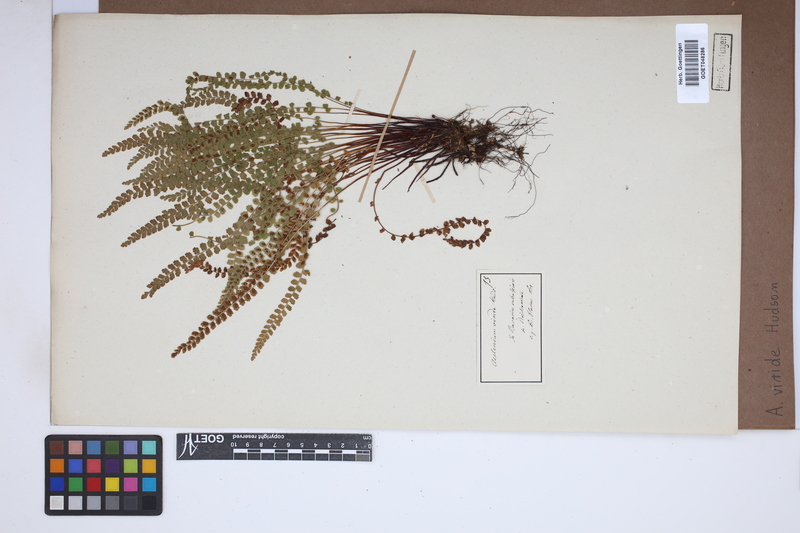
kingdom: Plantae
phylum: Tracheophyta
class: Polypodiopsida
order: Polypodiales
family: Aspleniaceae
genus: Asplenium
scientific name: Asplenium viride
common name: Green spleenwort
